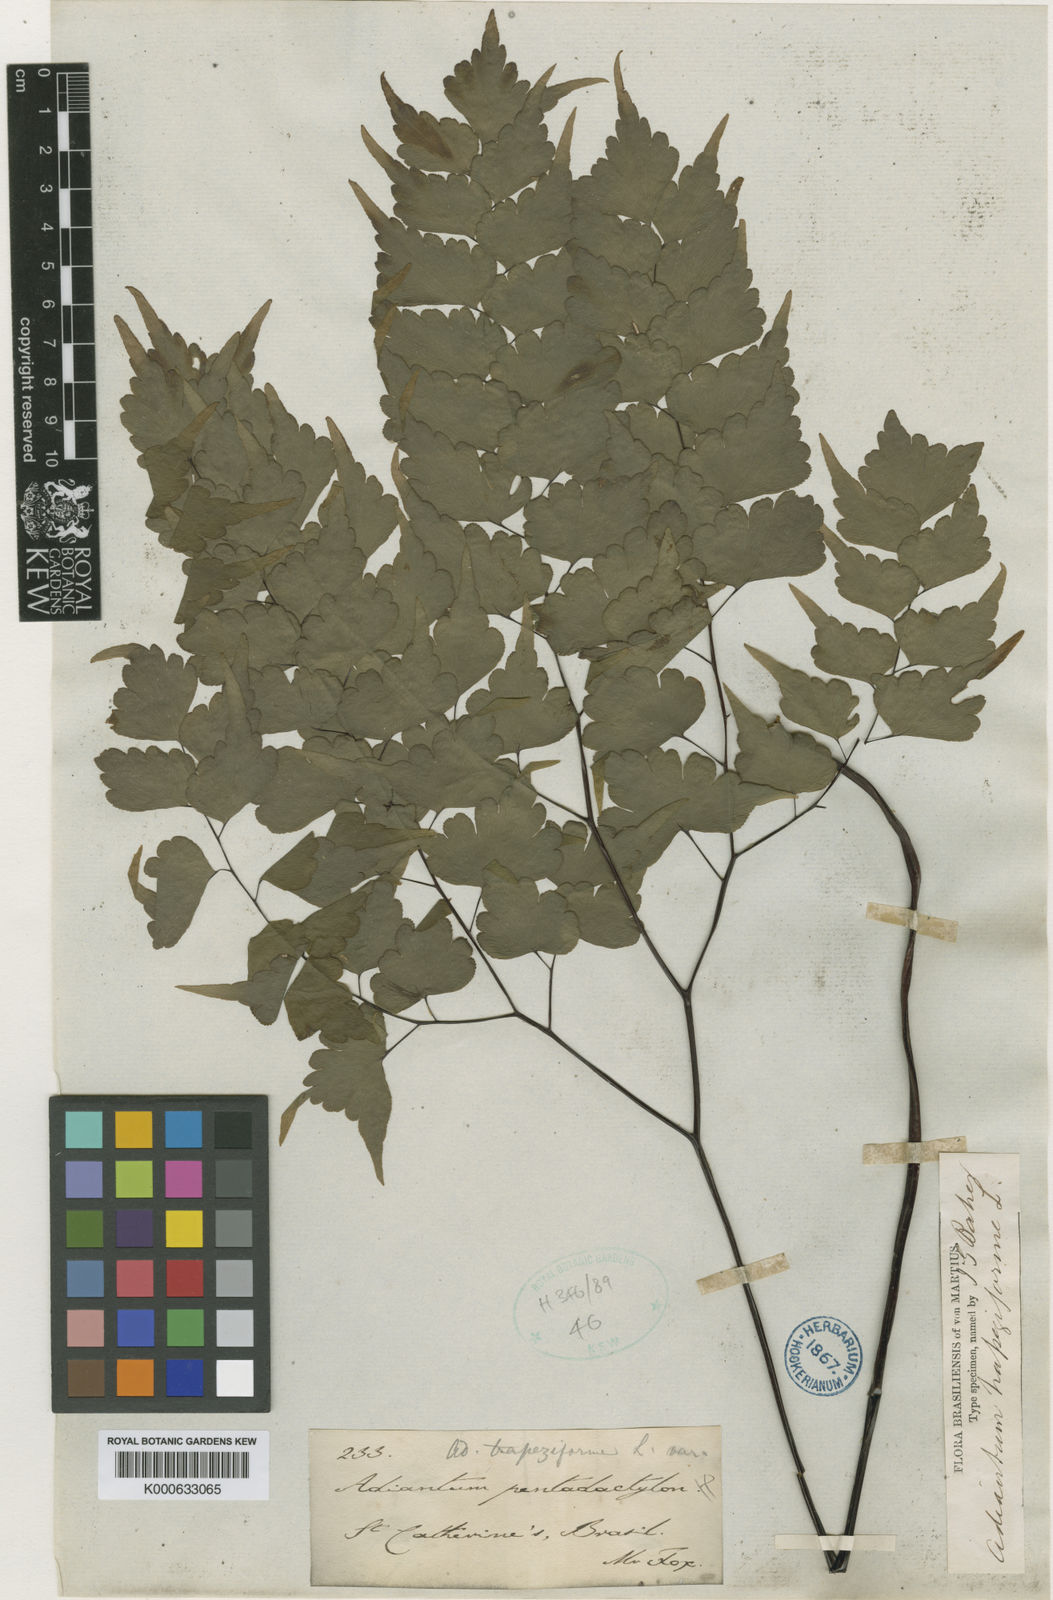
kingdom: Plantae
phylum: Tracheophyta
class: Polypodiopsida
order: Polypodiales
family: Pteridaceae
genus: Adiantum
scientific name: Adiantum pentadactylon
